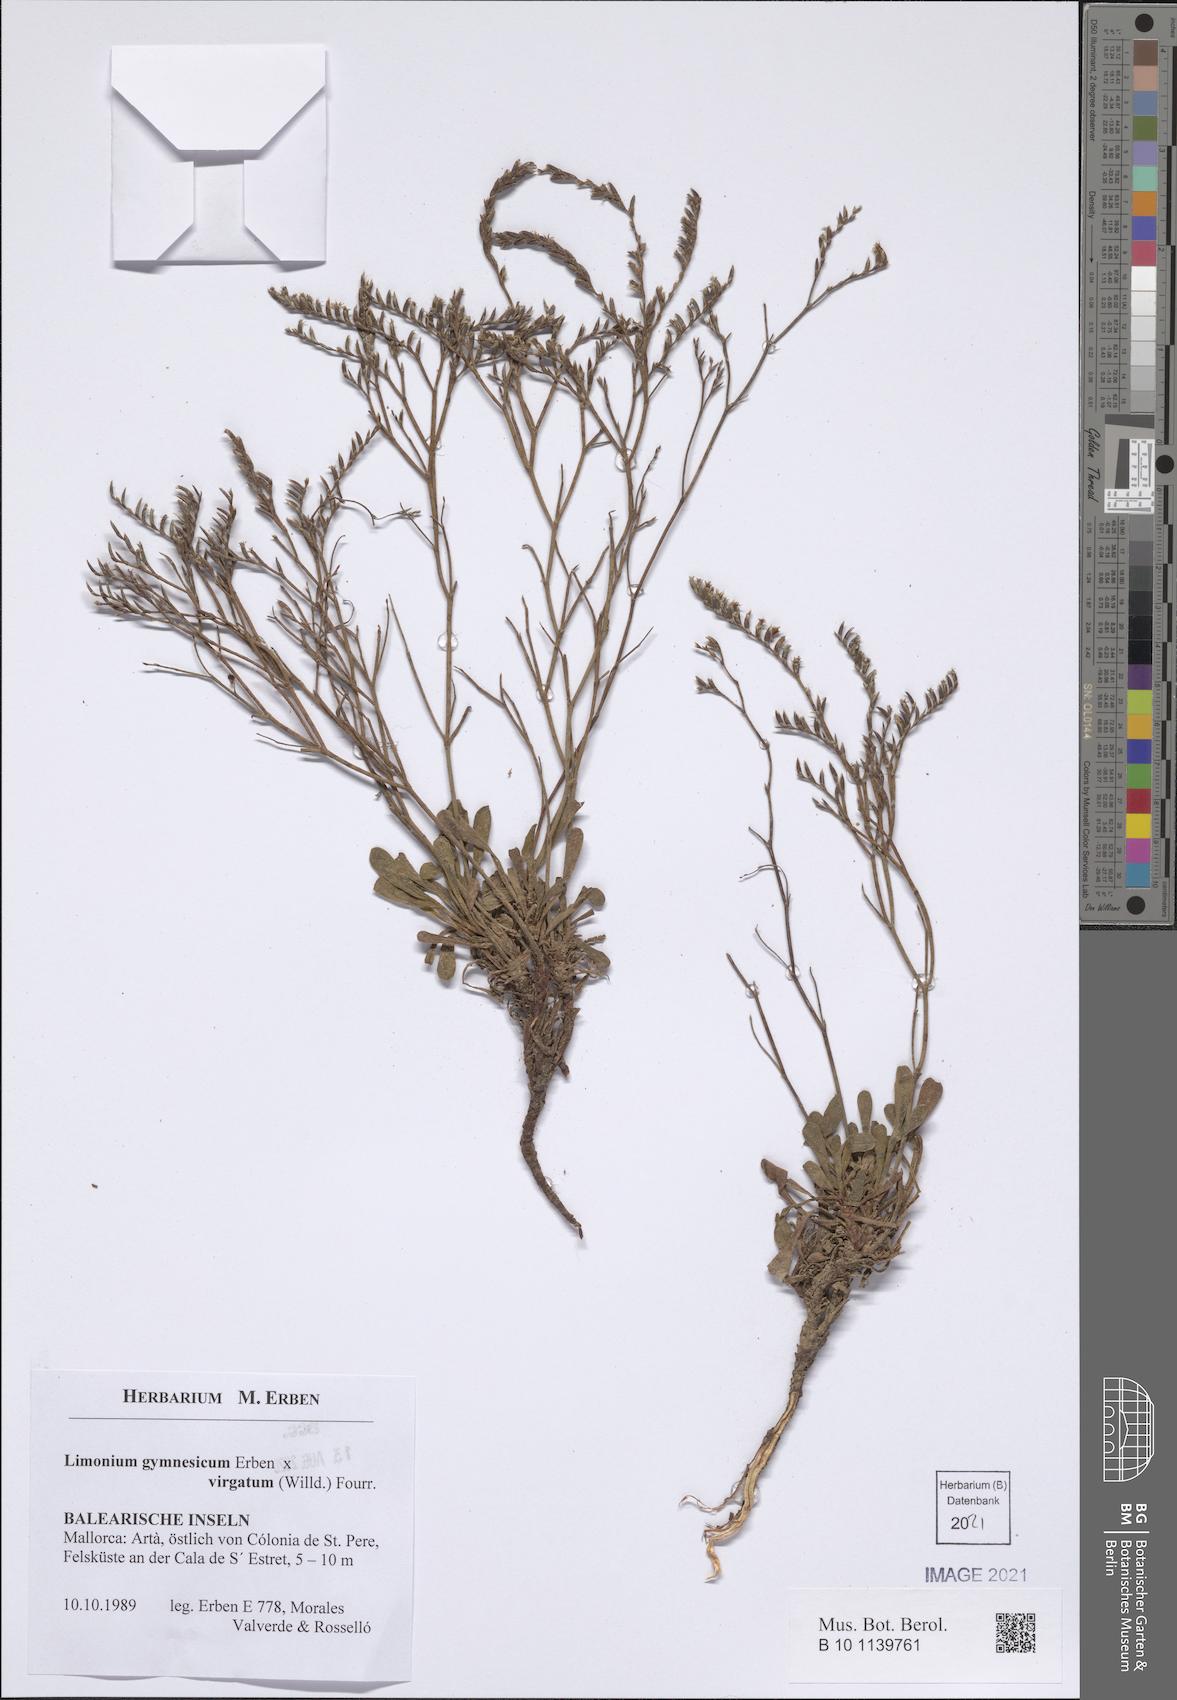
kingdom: Plantae
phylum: Tracheophyta
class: Magnoliopsida
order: Caryophyllales
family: Plumbaginaceae
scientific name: Plumbaginaceae
